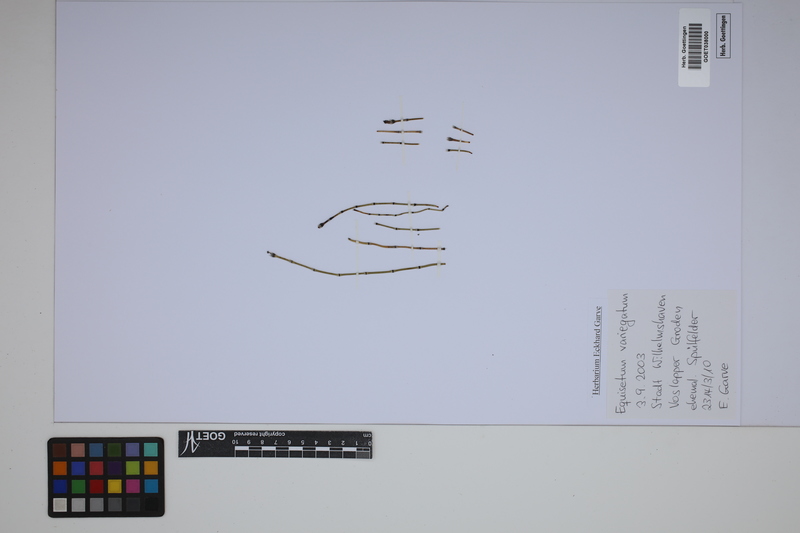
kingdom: Plantae
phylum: Tracheophyta
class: Polypodiopsida
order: Equisetales
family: Equisetaceae
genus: Equisetum
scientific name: Equisetum variegatum
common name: Variegated horsetail
